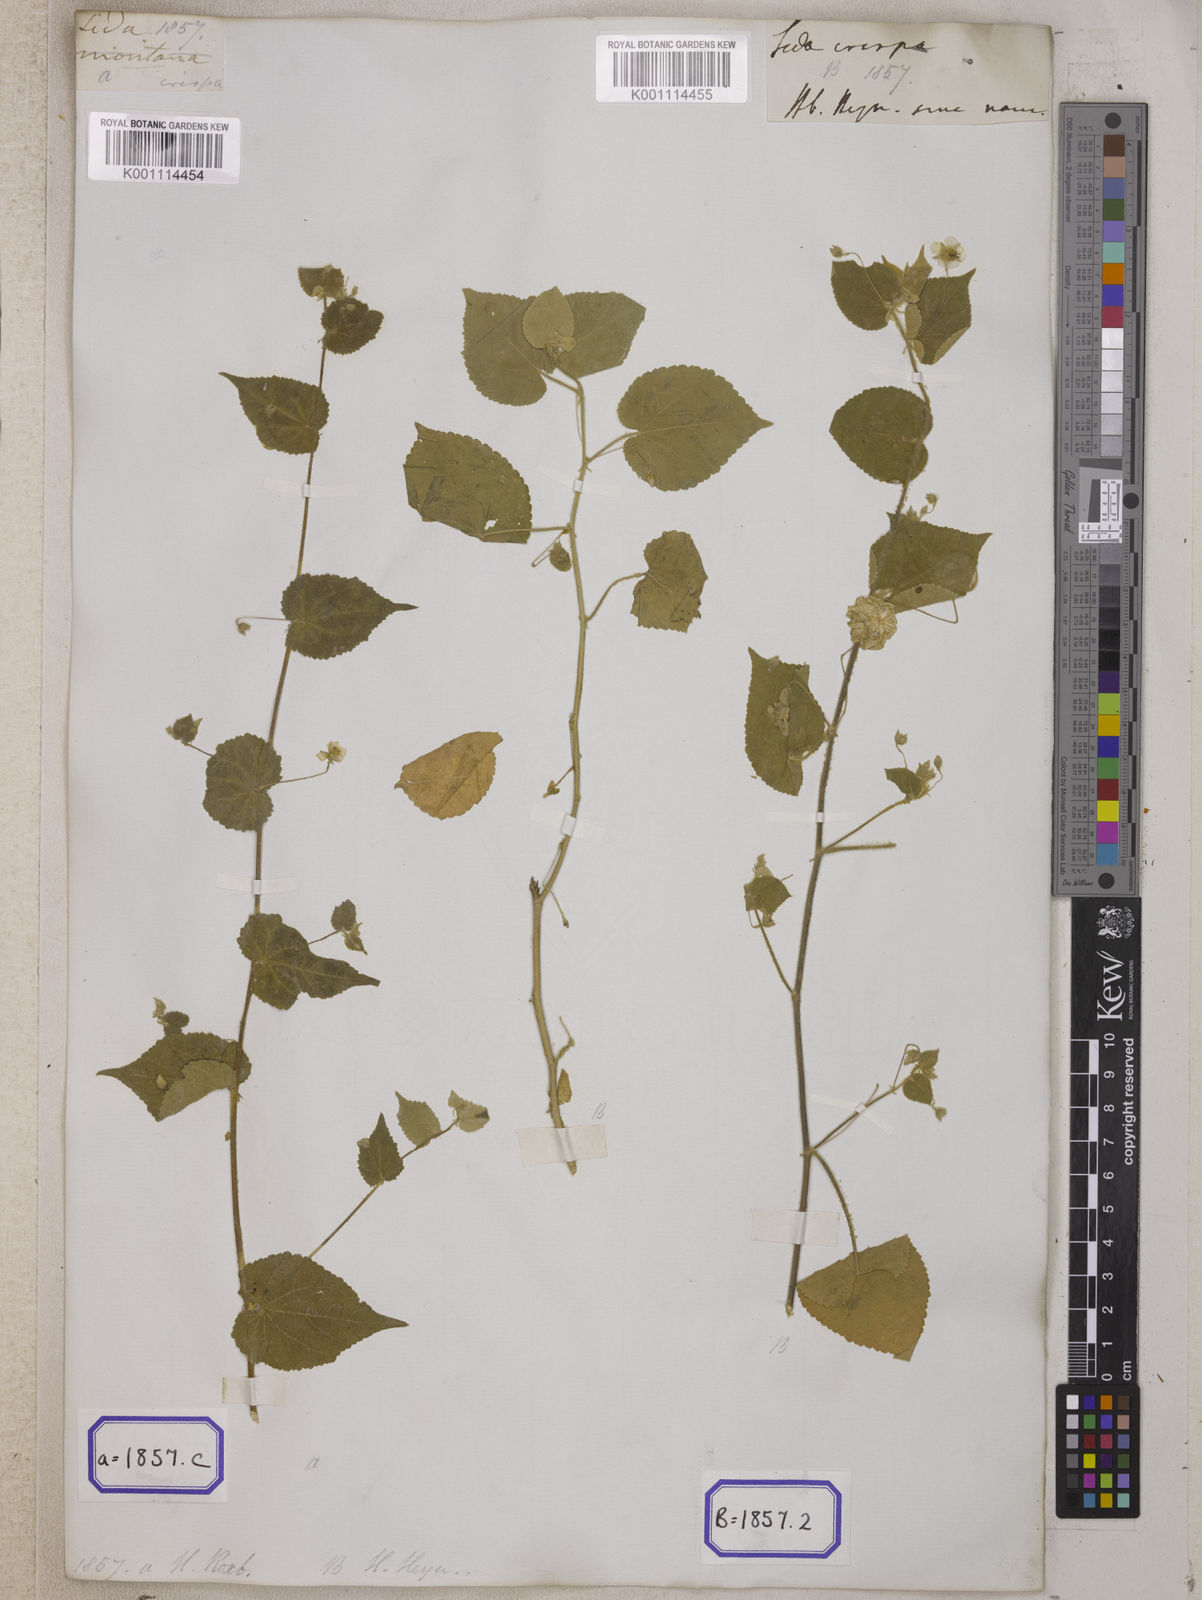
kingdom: Plantae
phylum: Tracheophyta
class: Magnoliopsida
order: Malvales
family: Malvaceae
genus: Herissantia
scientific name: Herissantia crispa
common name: Bladdermallow
